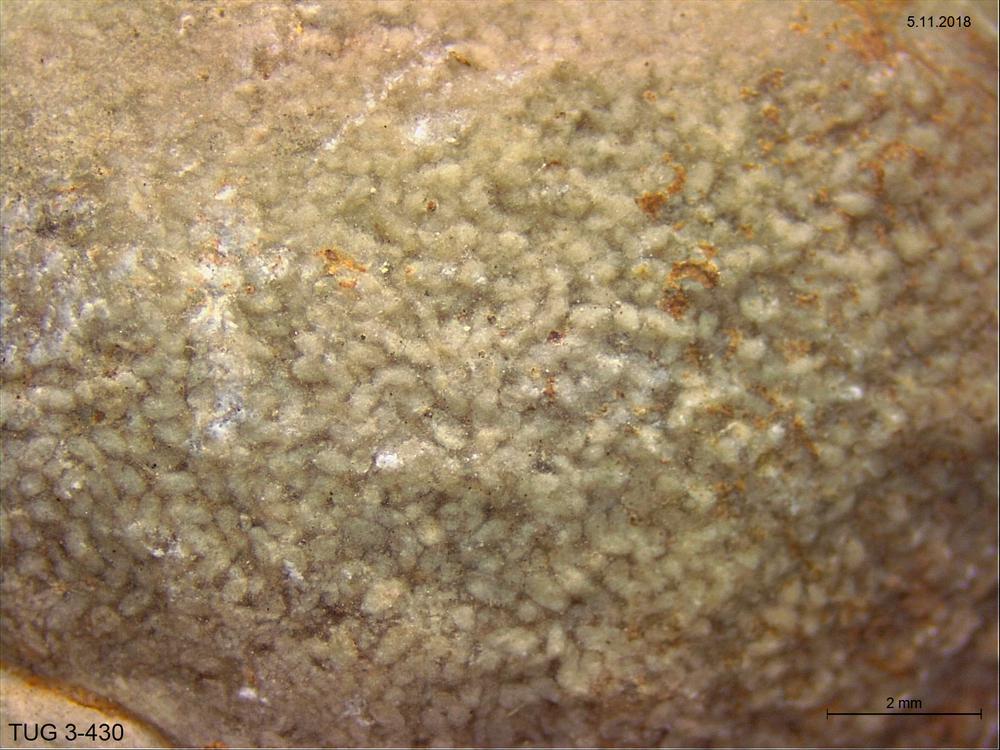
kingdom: Animalia
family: Coprulidae
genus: Coprulus
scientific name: Coprulus
